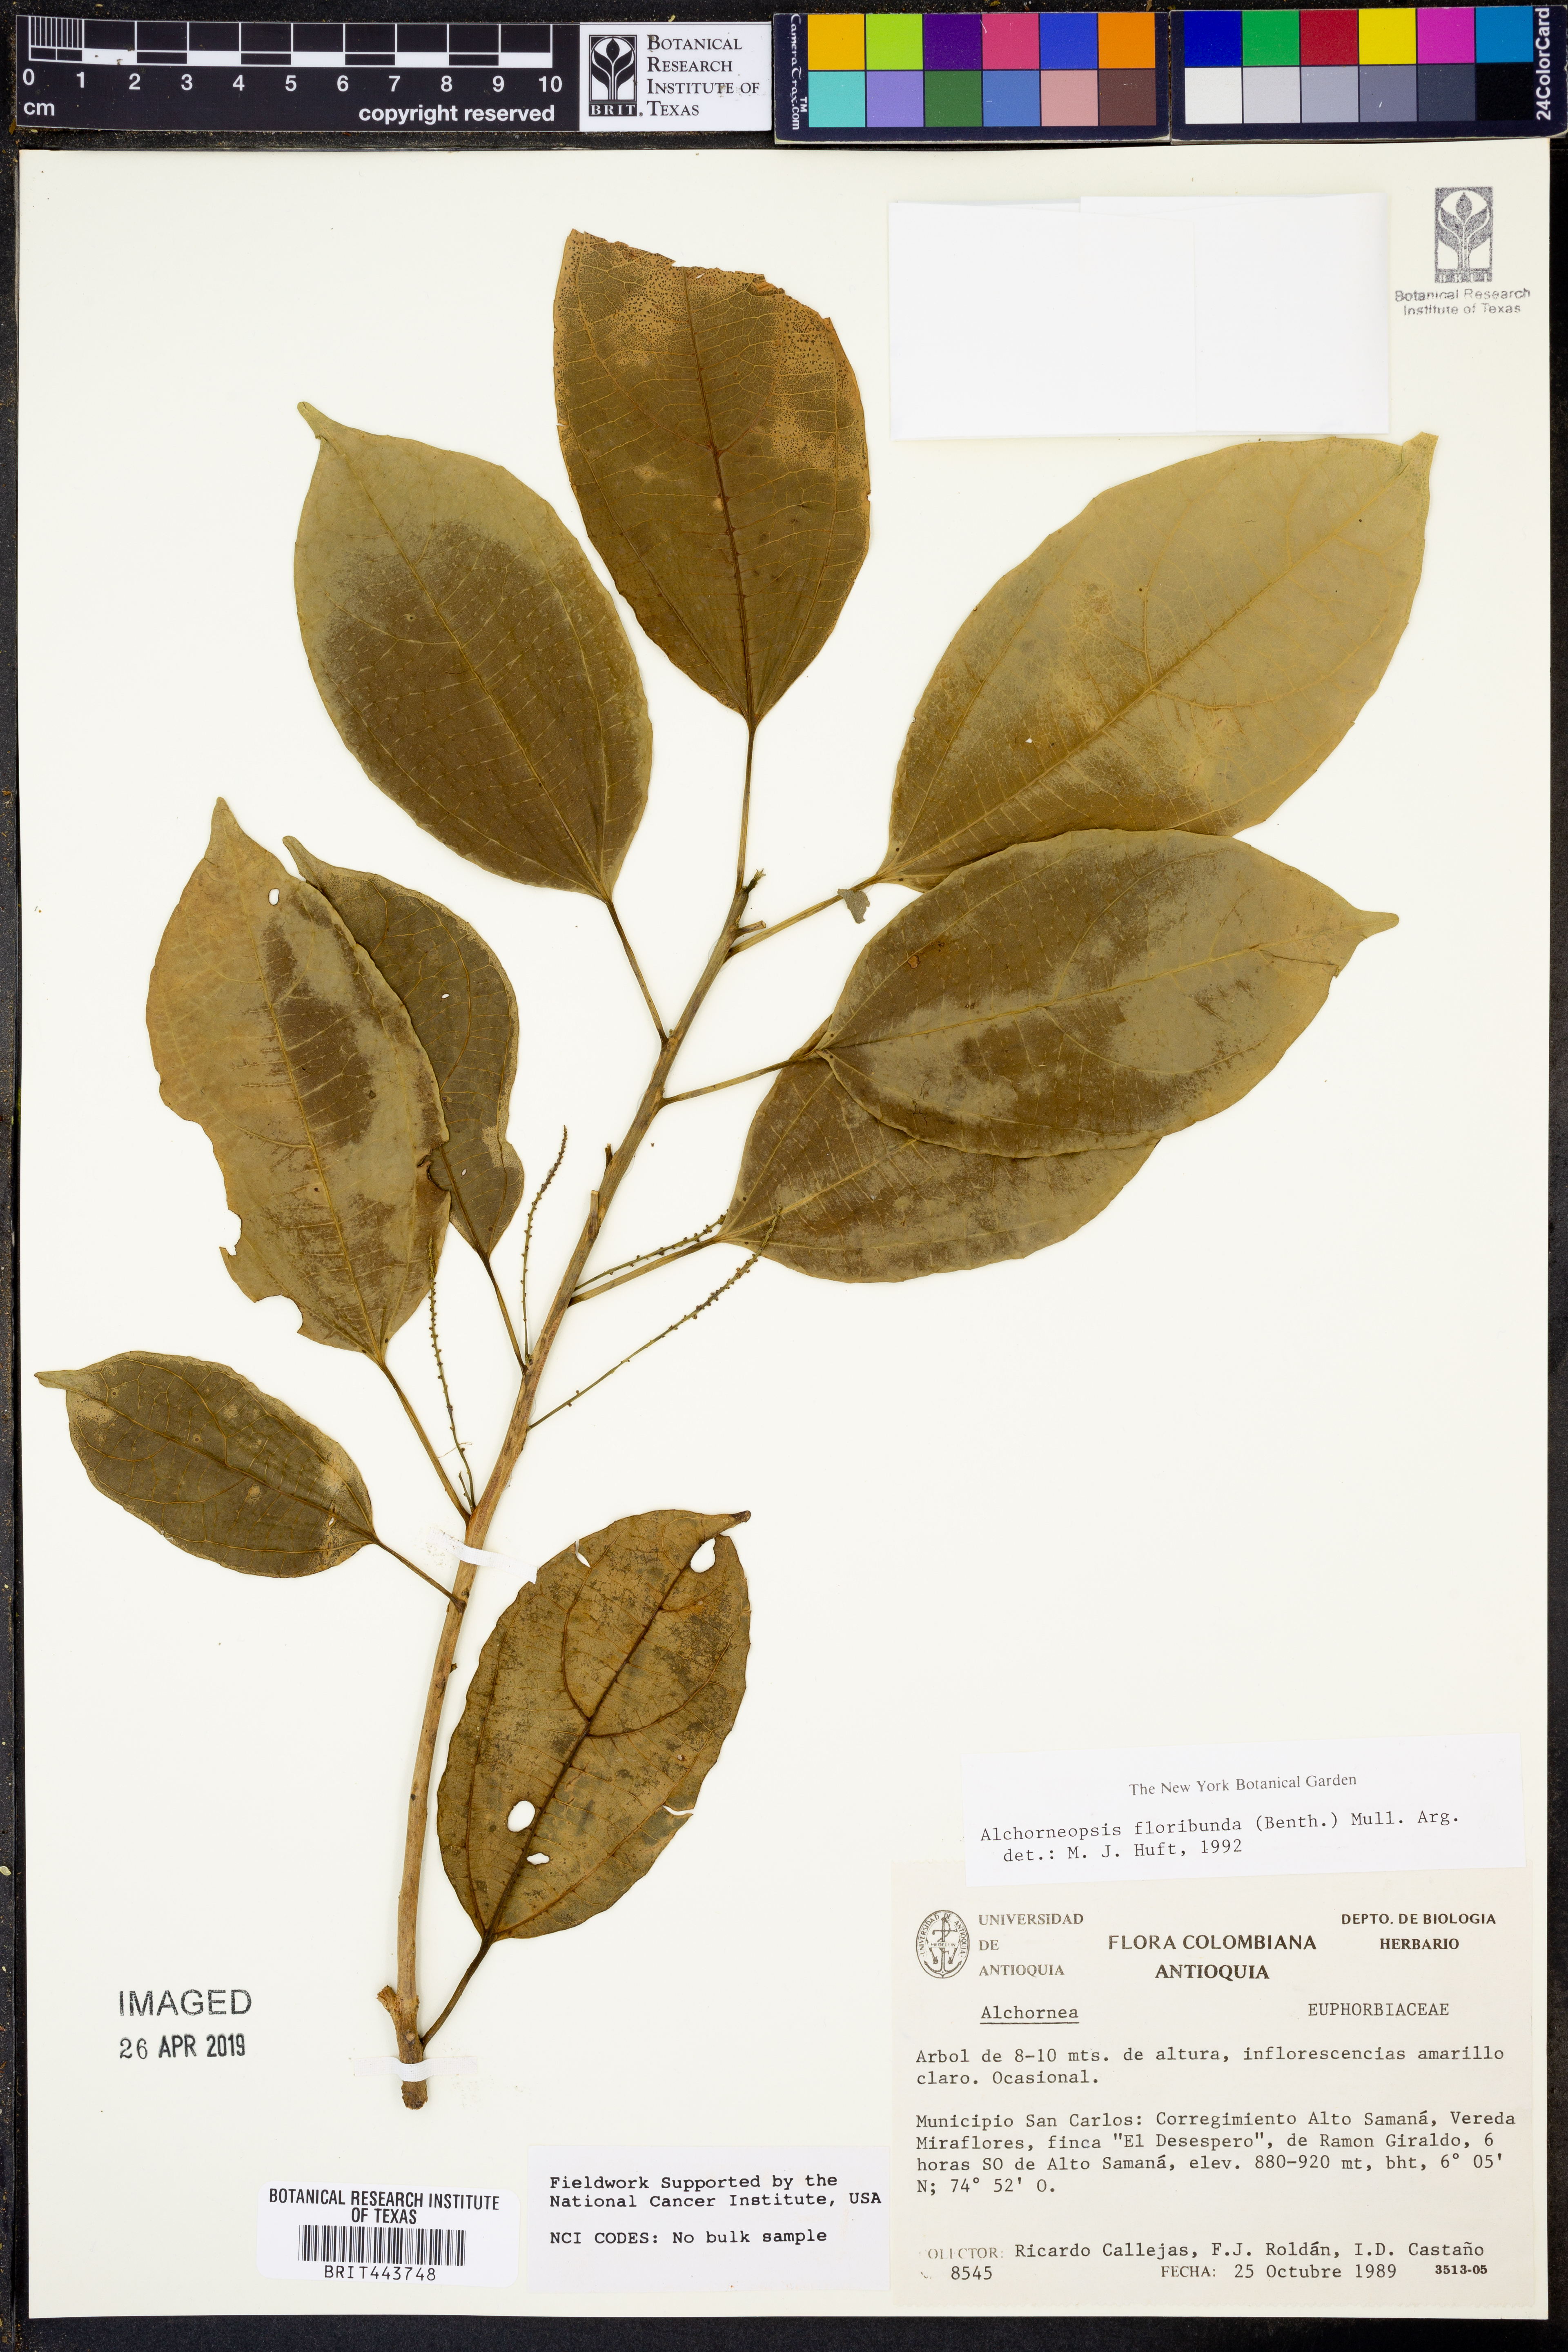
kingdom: Plantae
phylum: Tracheophyta
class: Magnoliopsida
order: Malpighiales
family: Euphorbiaceae
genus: Alchorneopsis
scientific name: Alchorneopsis floribunda
